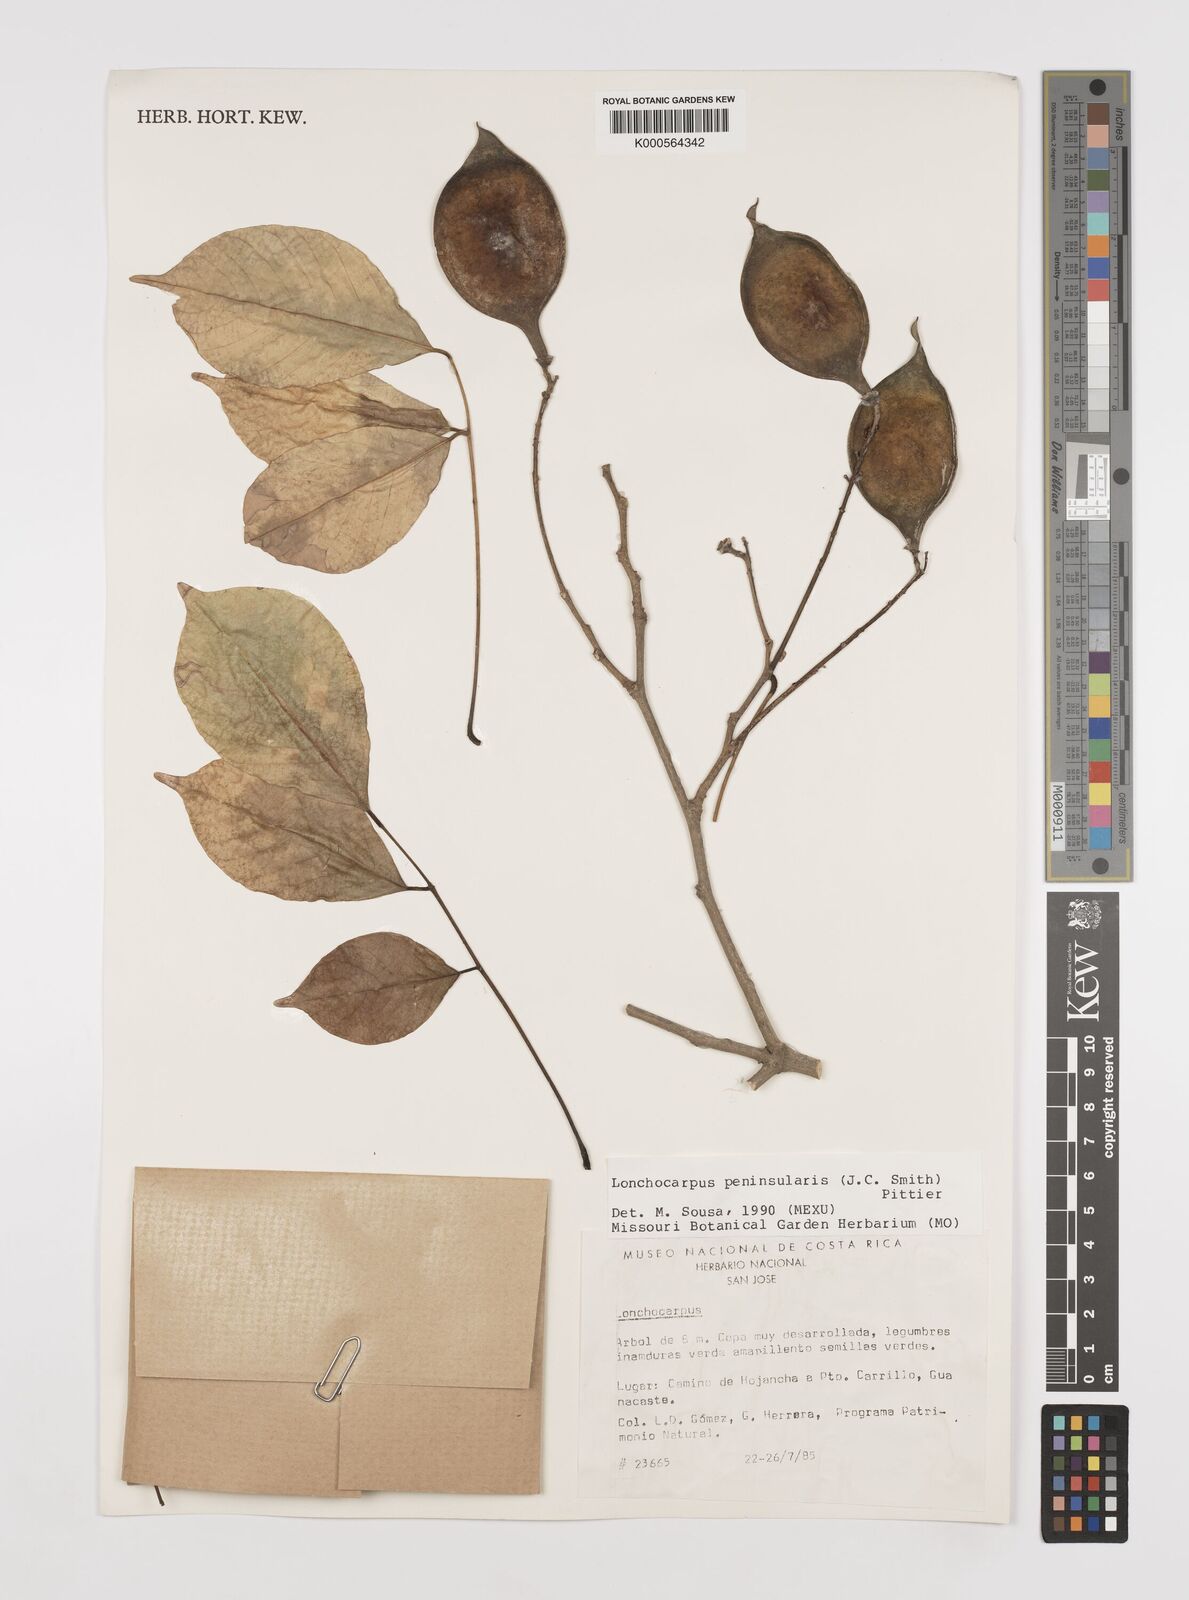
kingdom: Plantae
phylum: Tracheophyta
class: Magnoliopsida
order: Fabales
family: Fabaceae
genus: Lonchocarpus
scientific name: Lonchocarpus acuminatus
